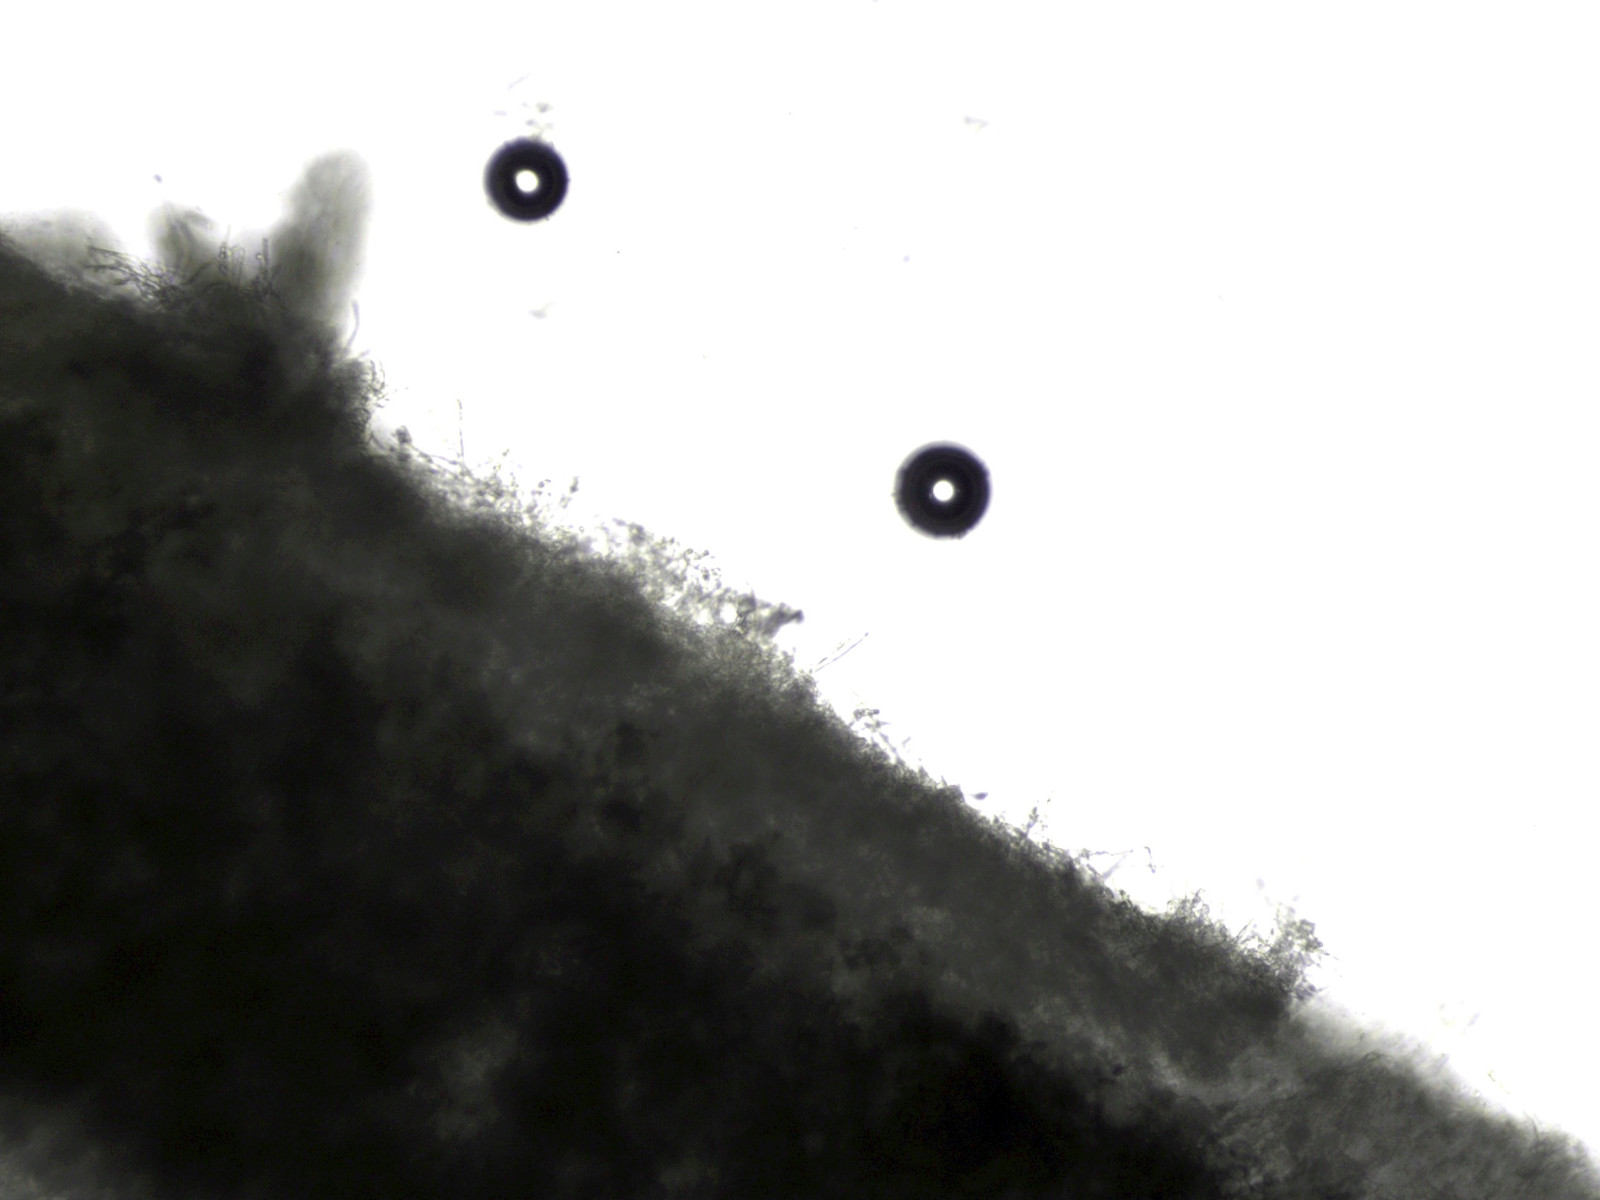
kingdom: Fungi
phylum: Basidiomycota
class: Agaricomycetes
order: Russulales
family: Russulaceae
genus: Lactifluus
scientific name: Lactifluus glaucescens
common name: grønplettet mælkehat
